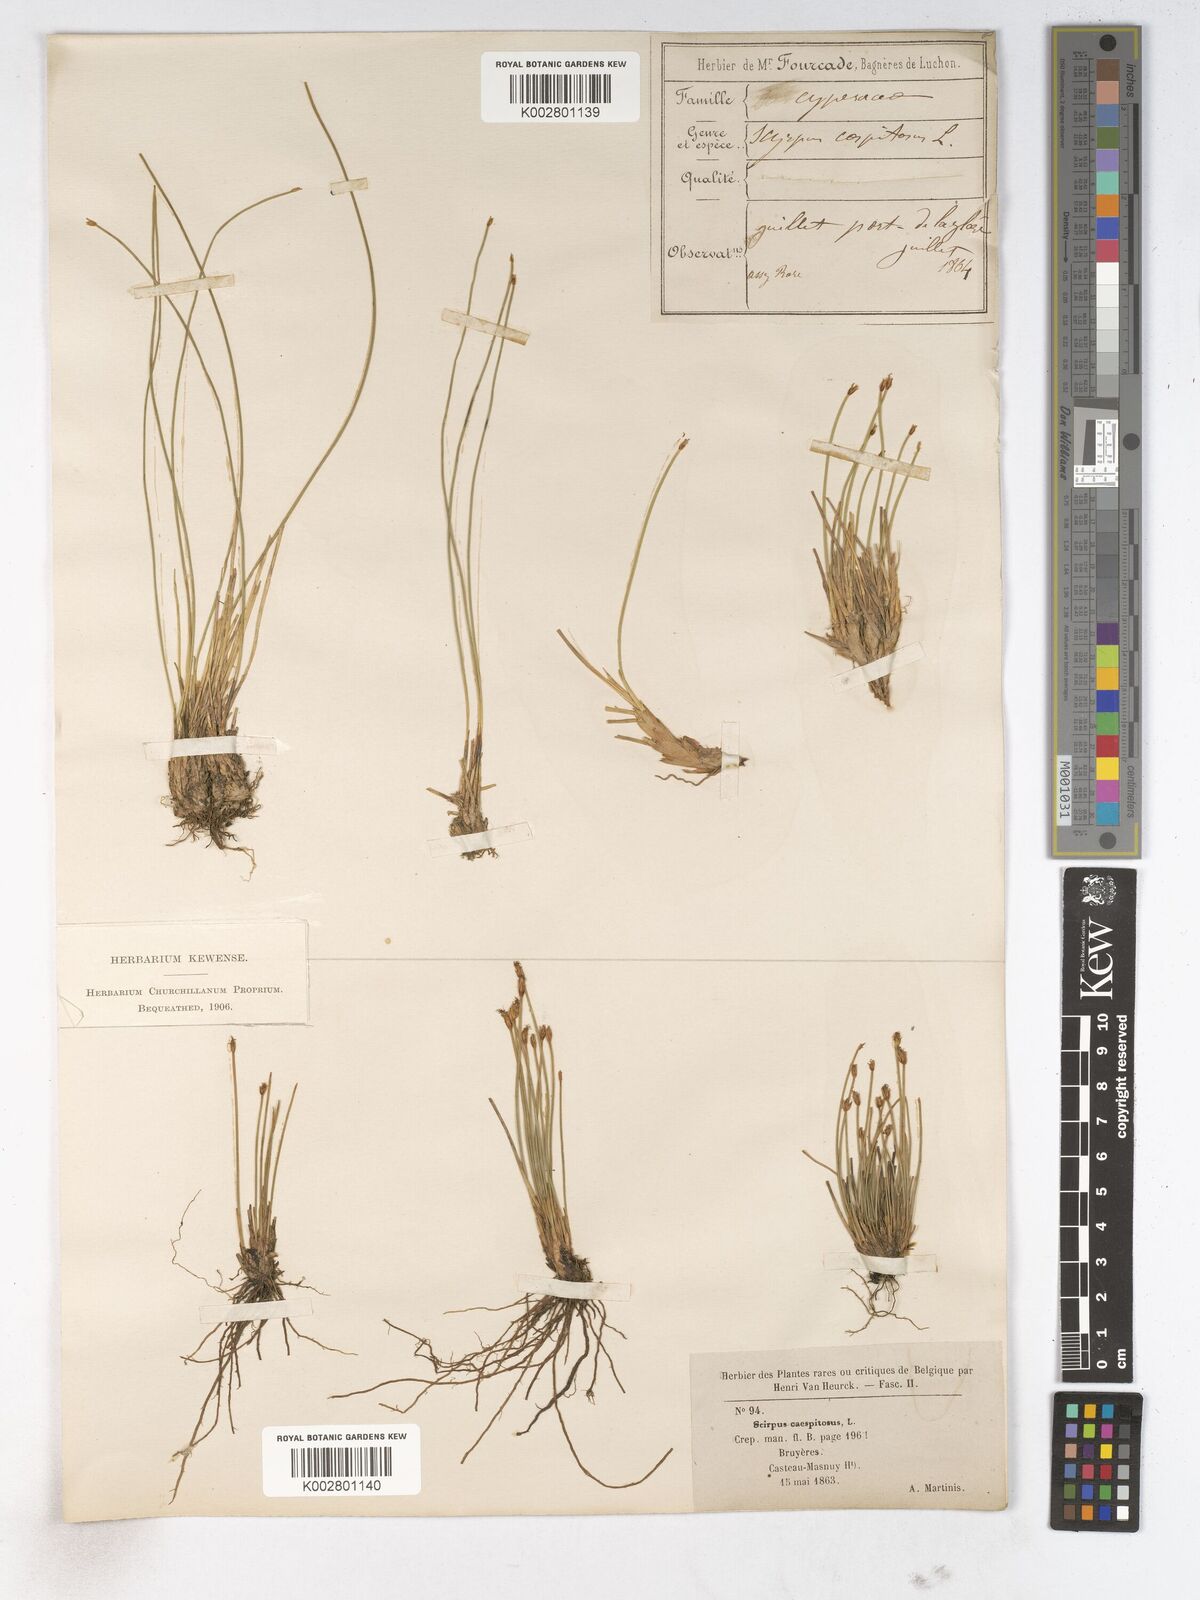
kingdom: Plantae
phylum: Tracheophyta
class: Liliopsida
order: Poales
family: Cyperaceae
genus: Trichophorum
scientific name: Trichophorum cespitosum
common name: Cespitose bulrush
